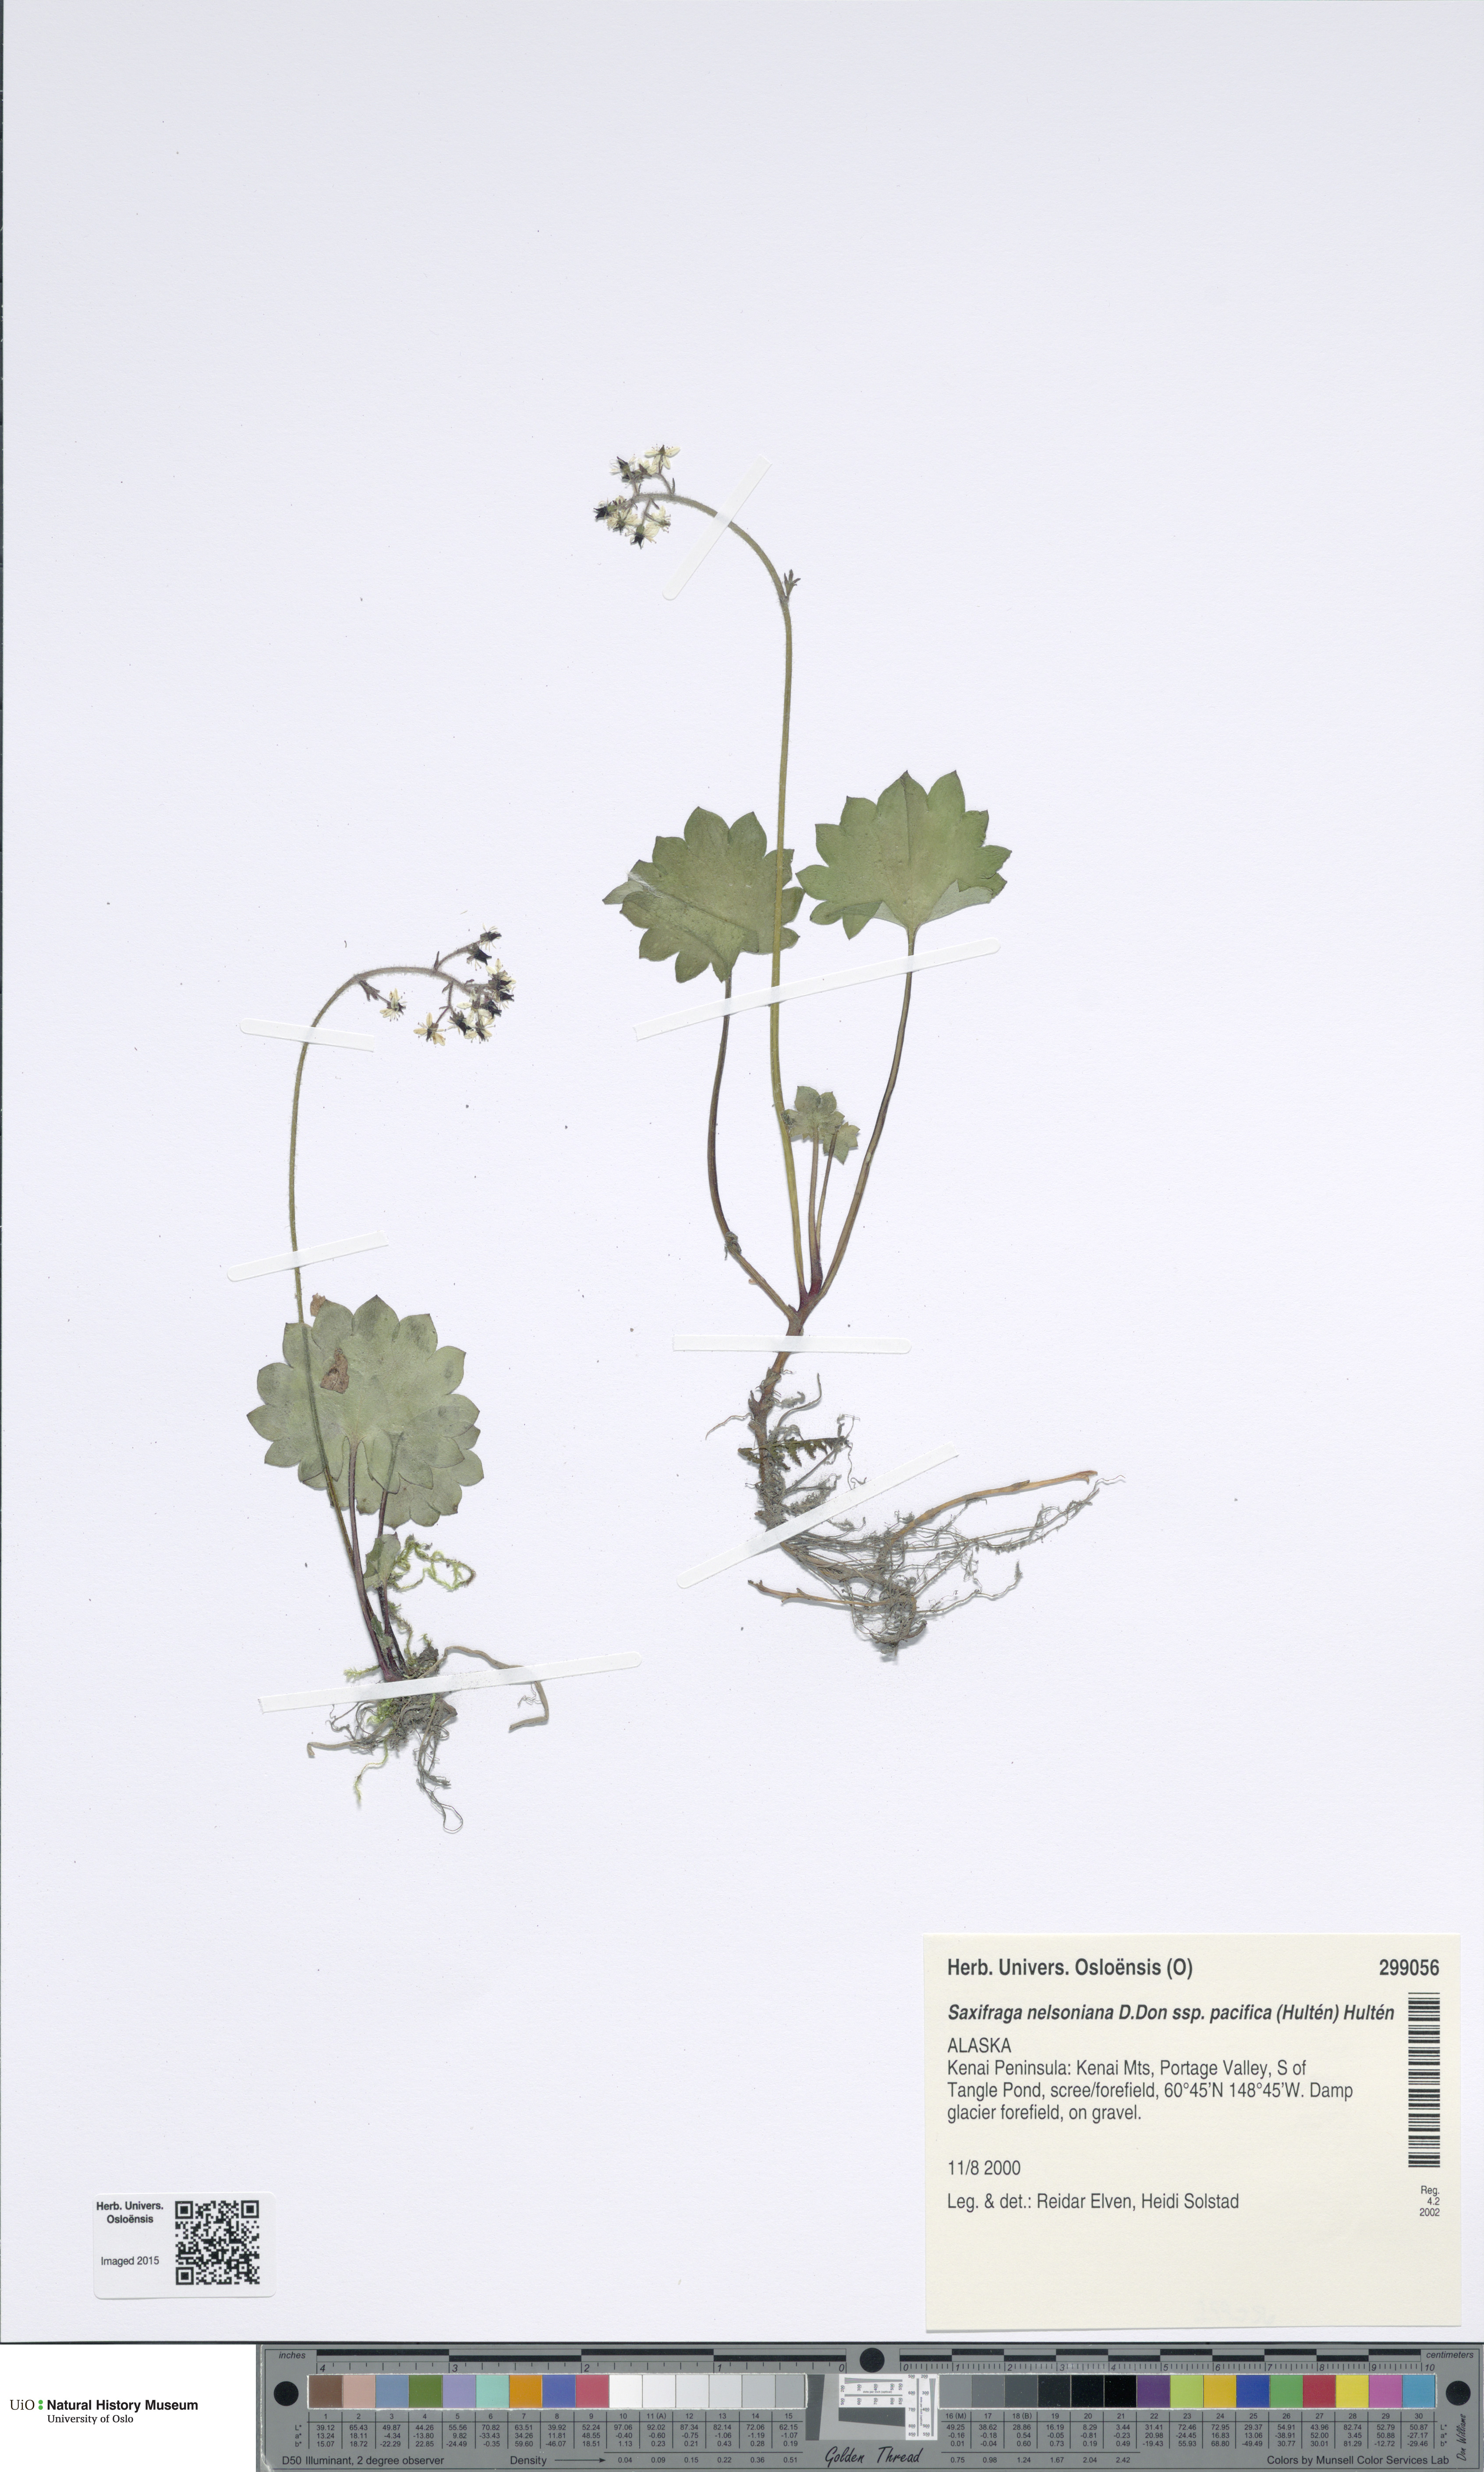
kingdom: Plantae
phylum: Tracheophyta
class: Magnoliopsida
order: Saxifragales
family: Saxifragaceae
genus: Micranthes
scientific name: Micranthes nelsoniana
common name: Nelson's saxifrage
